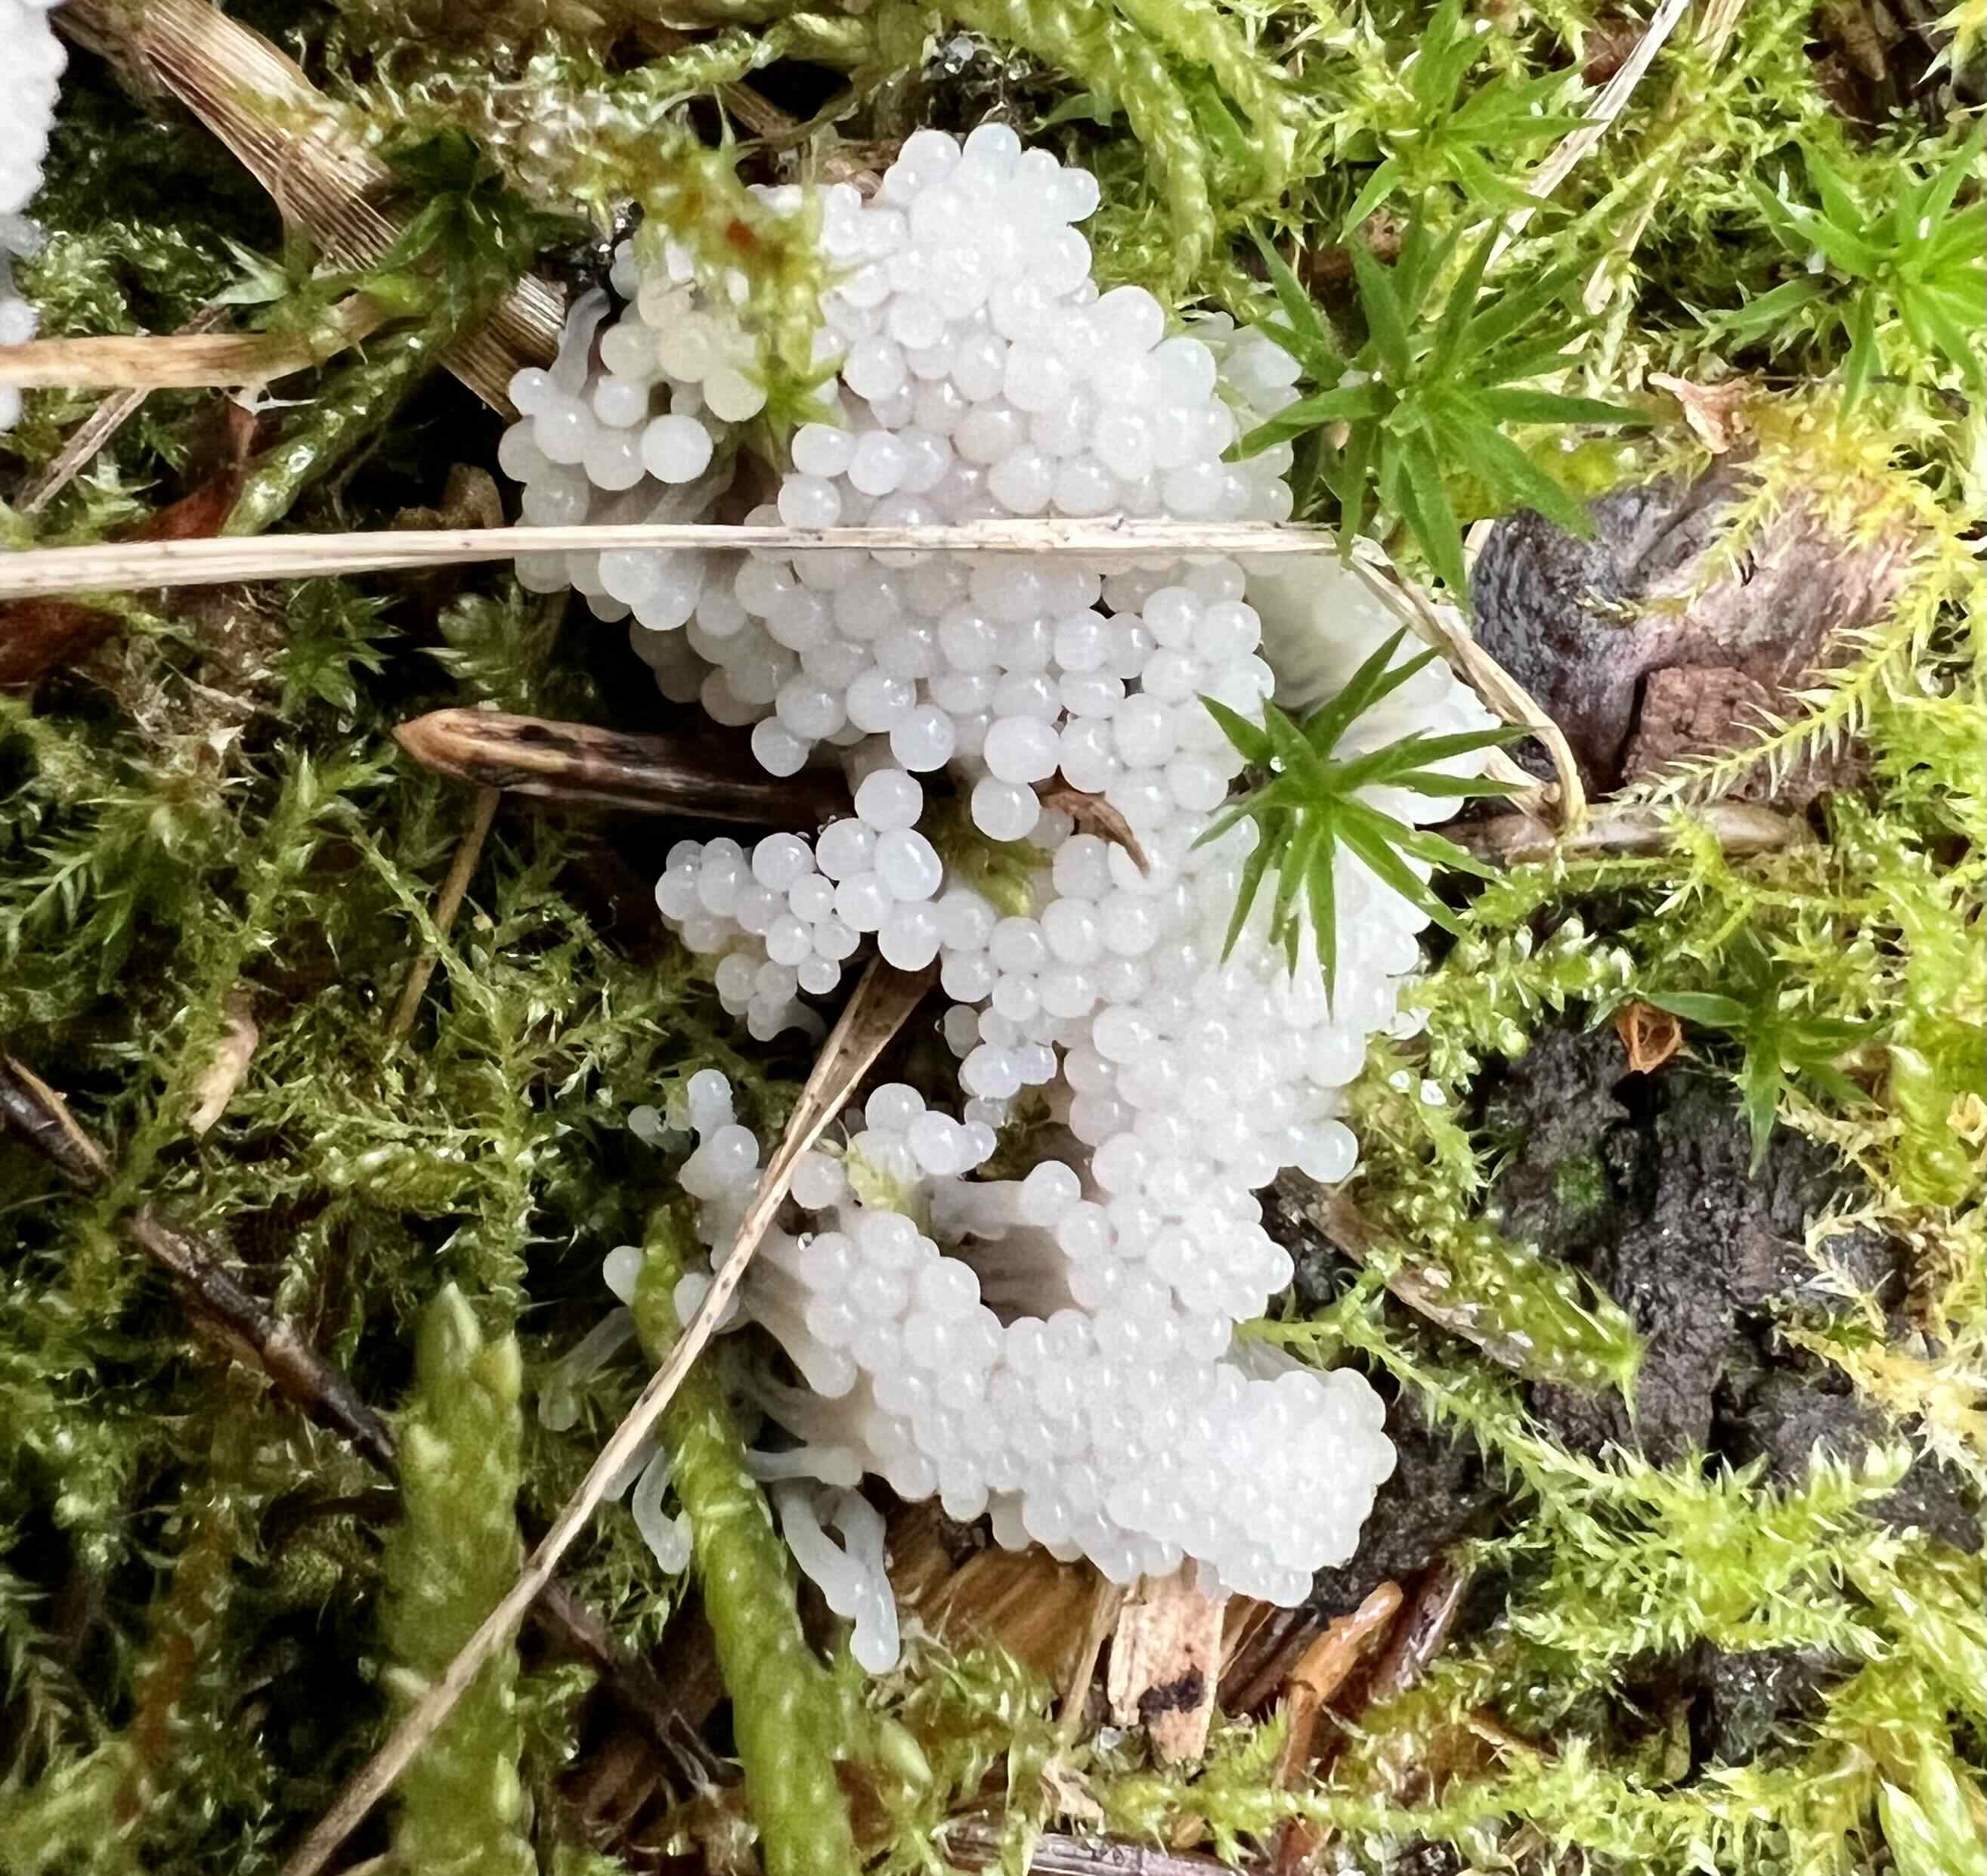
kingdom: Protozoa
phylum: Mycetozoa
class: Myxomycetes
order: Stemonitidales
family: Stemonitidaceae
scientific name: Stemonitidaceae
